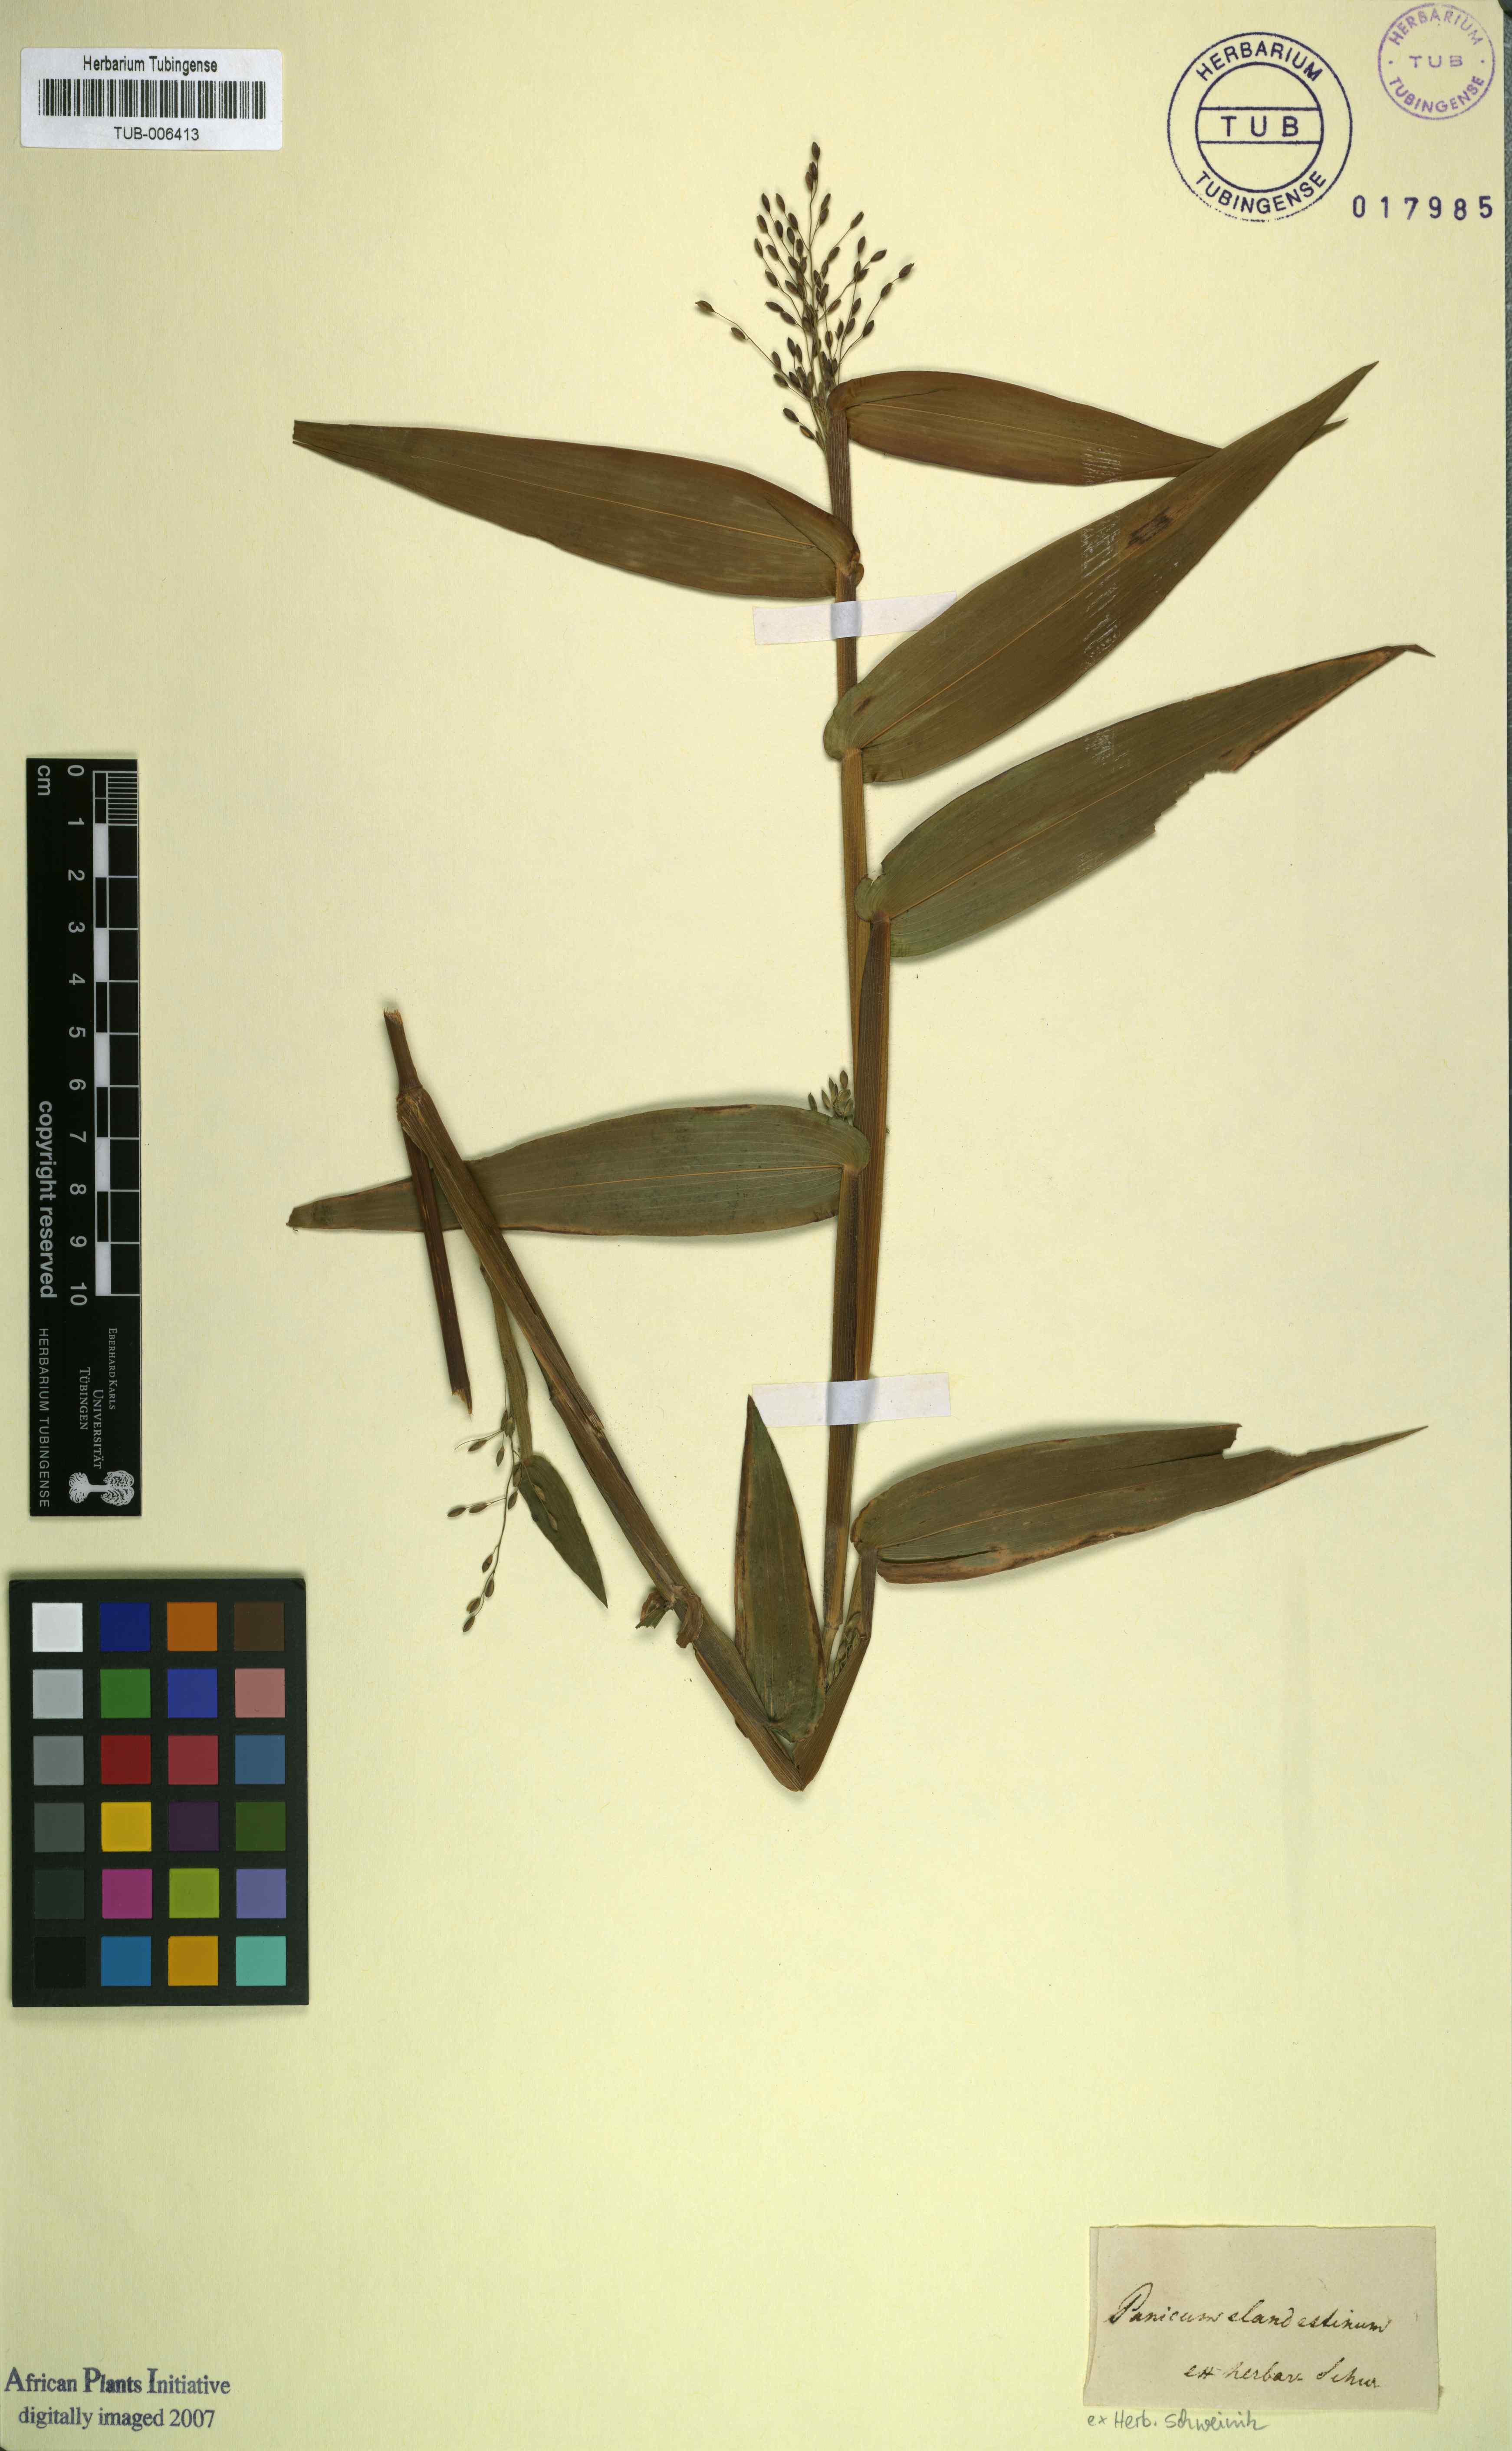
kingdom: Plantae
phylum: Tracheophyta
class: Liliopsida
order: Poales
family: Poaceae
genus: Dichanthelium
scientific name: Dichanthelium clandestinum
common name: Deer-tongue grass
